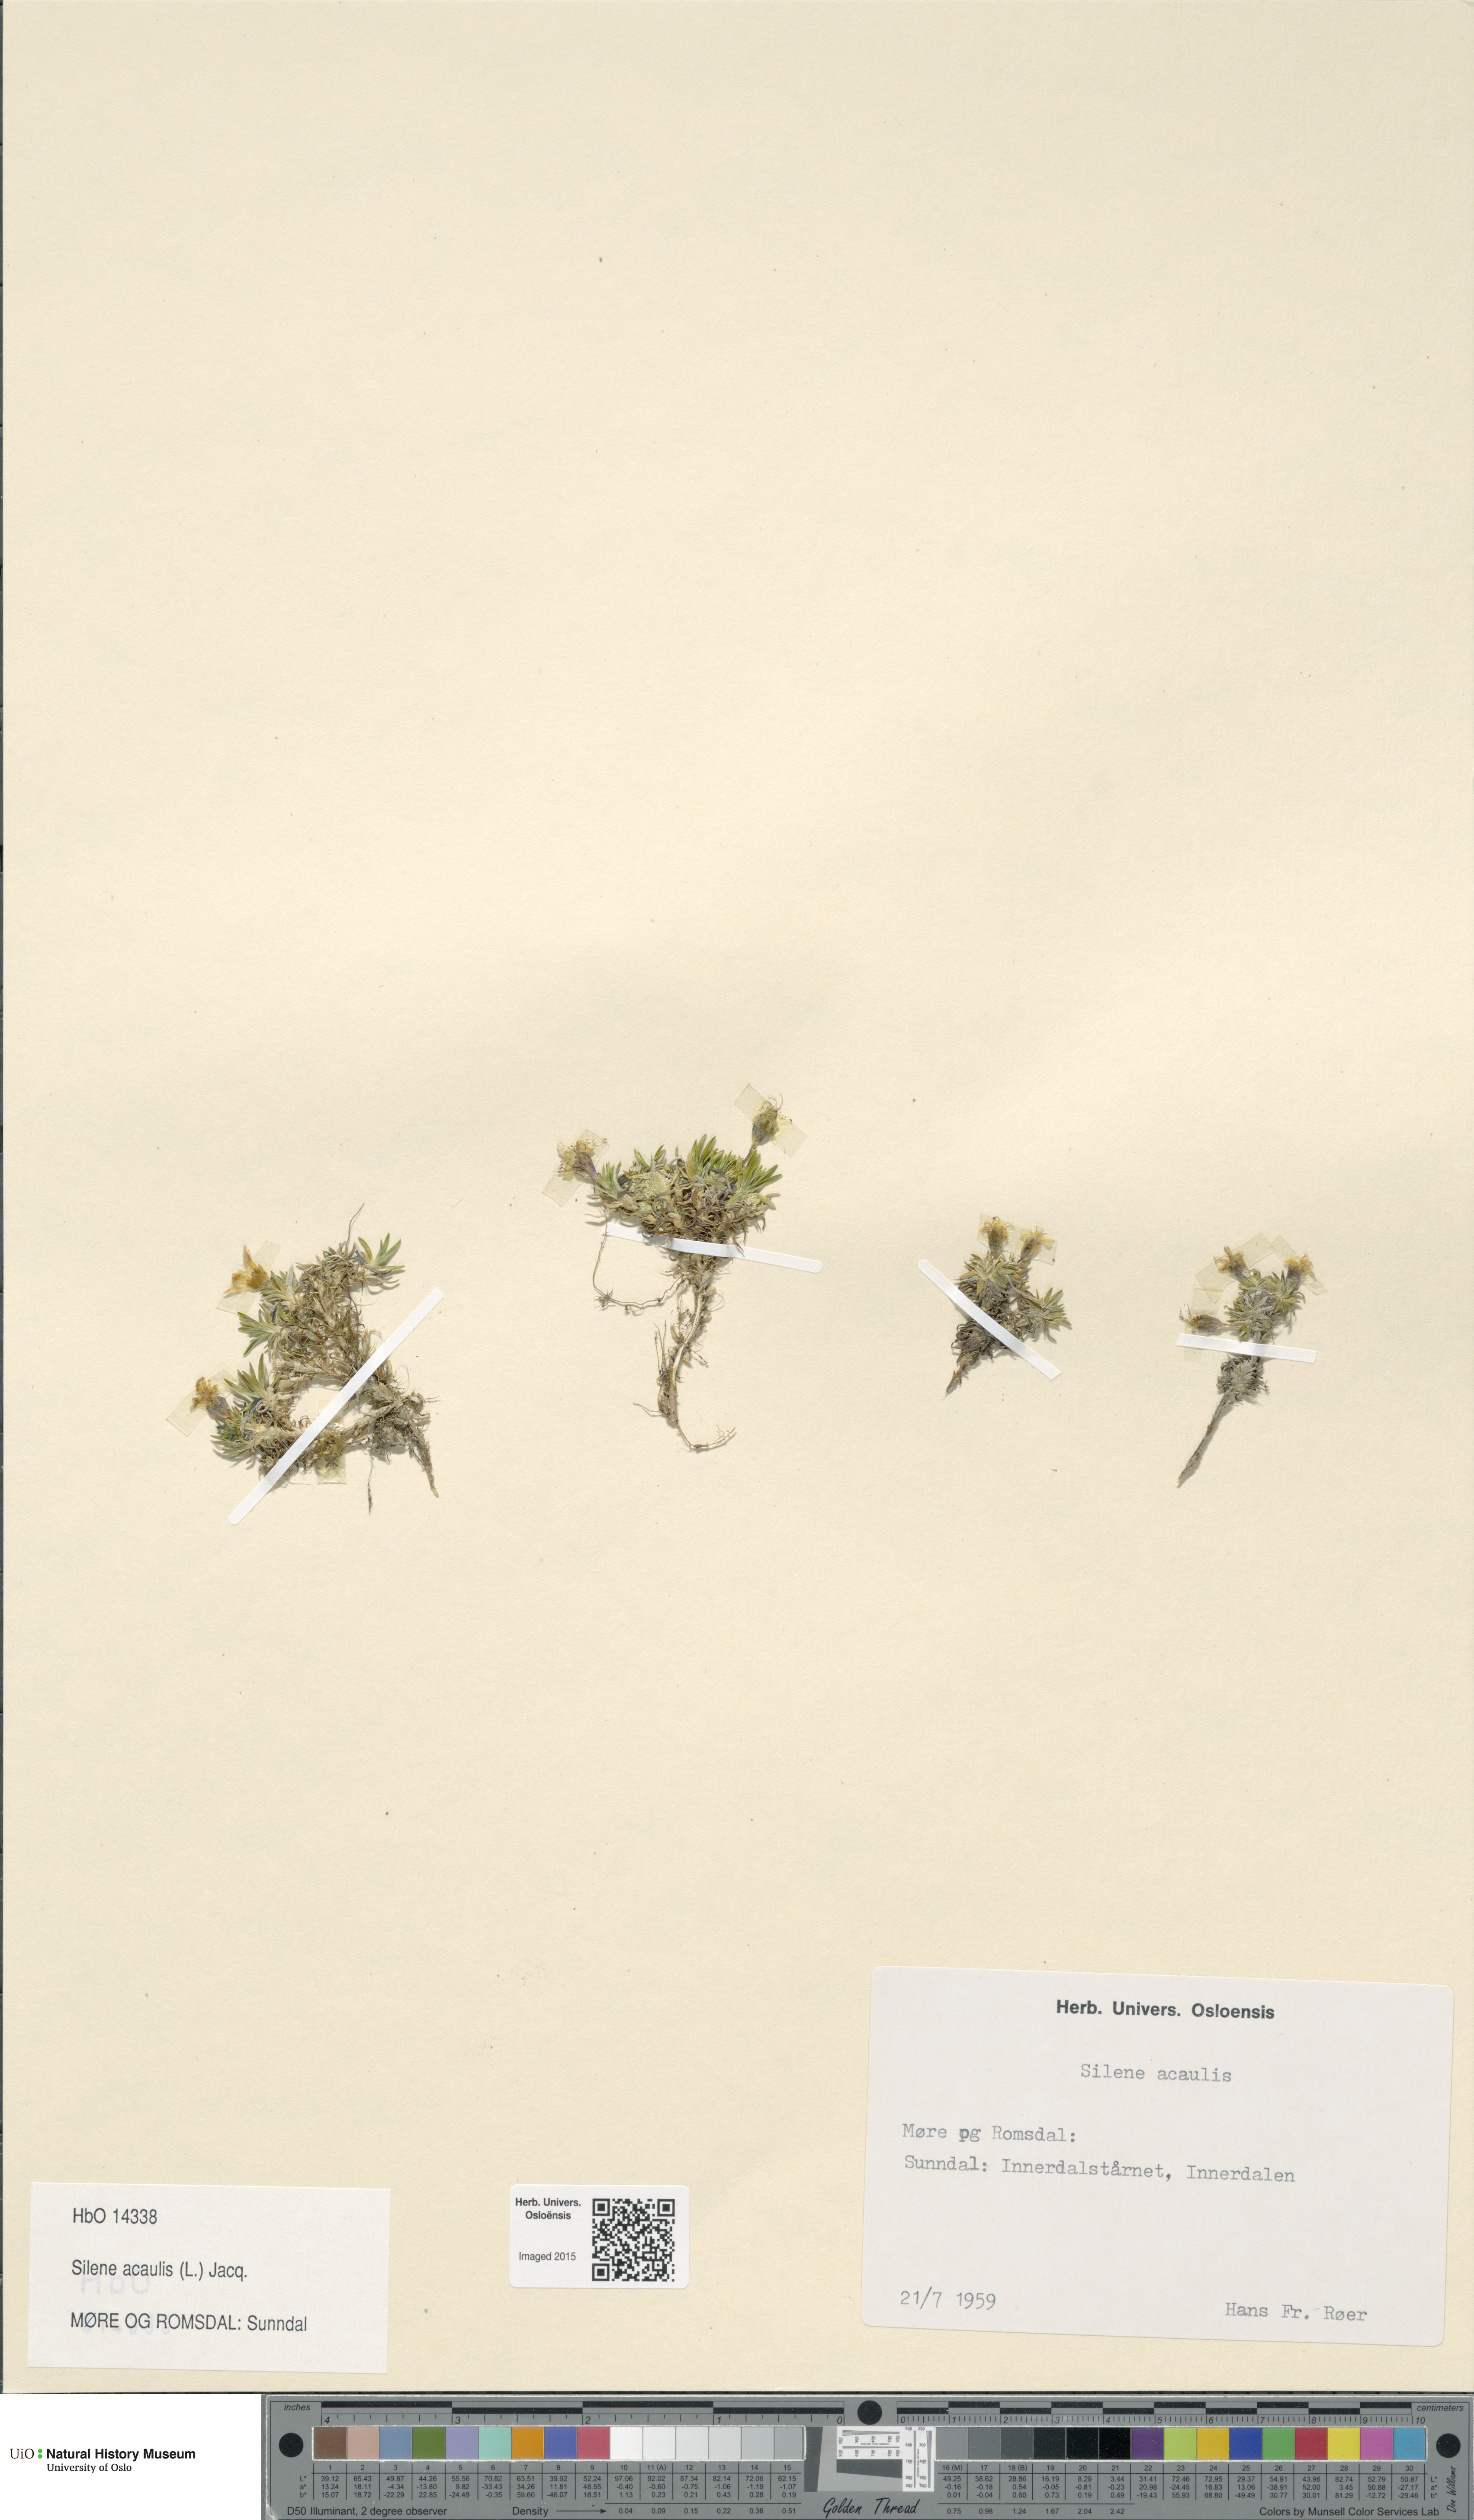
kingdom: Plantae
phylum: Tracheophyta
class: Magnoliopsida
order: Caryophyllales
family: Caryophyllaceae
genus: Silene
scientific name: Silene acaulis
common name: Moss campion
